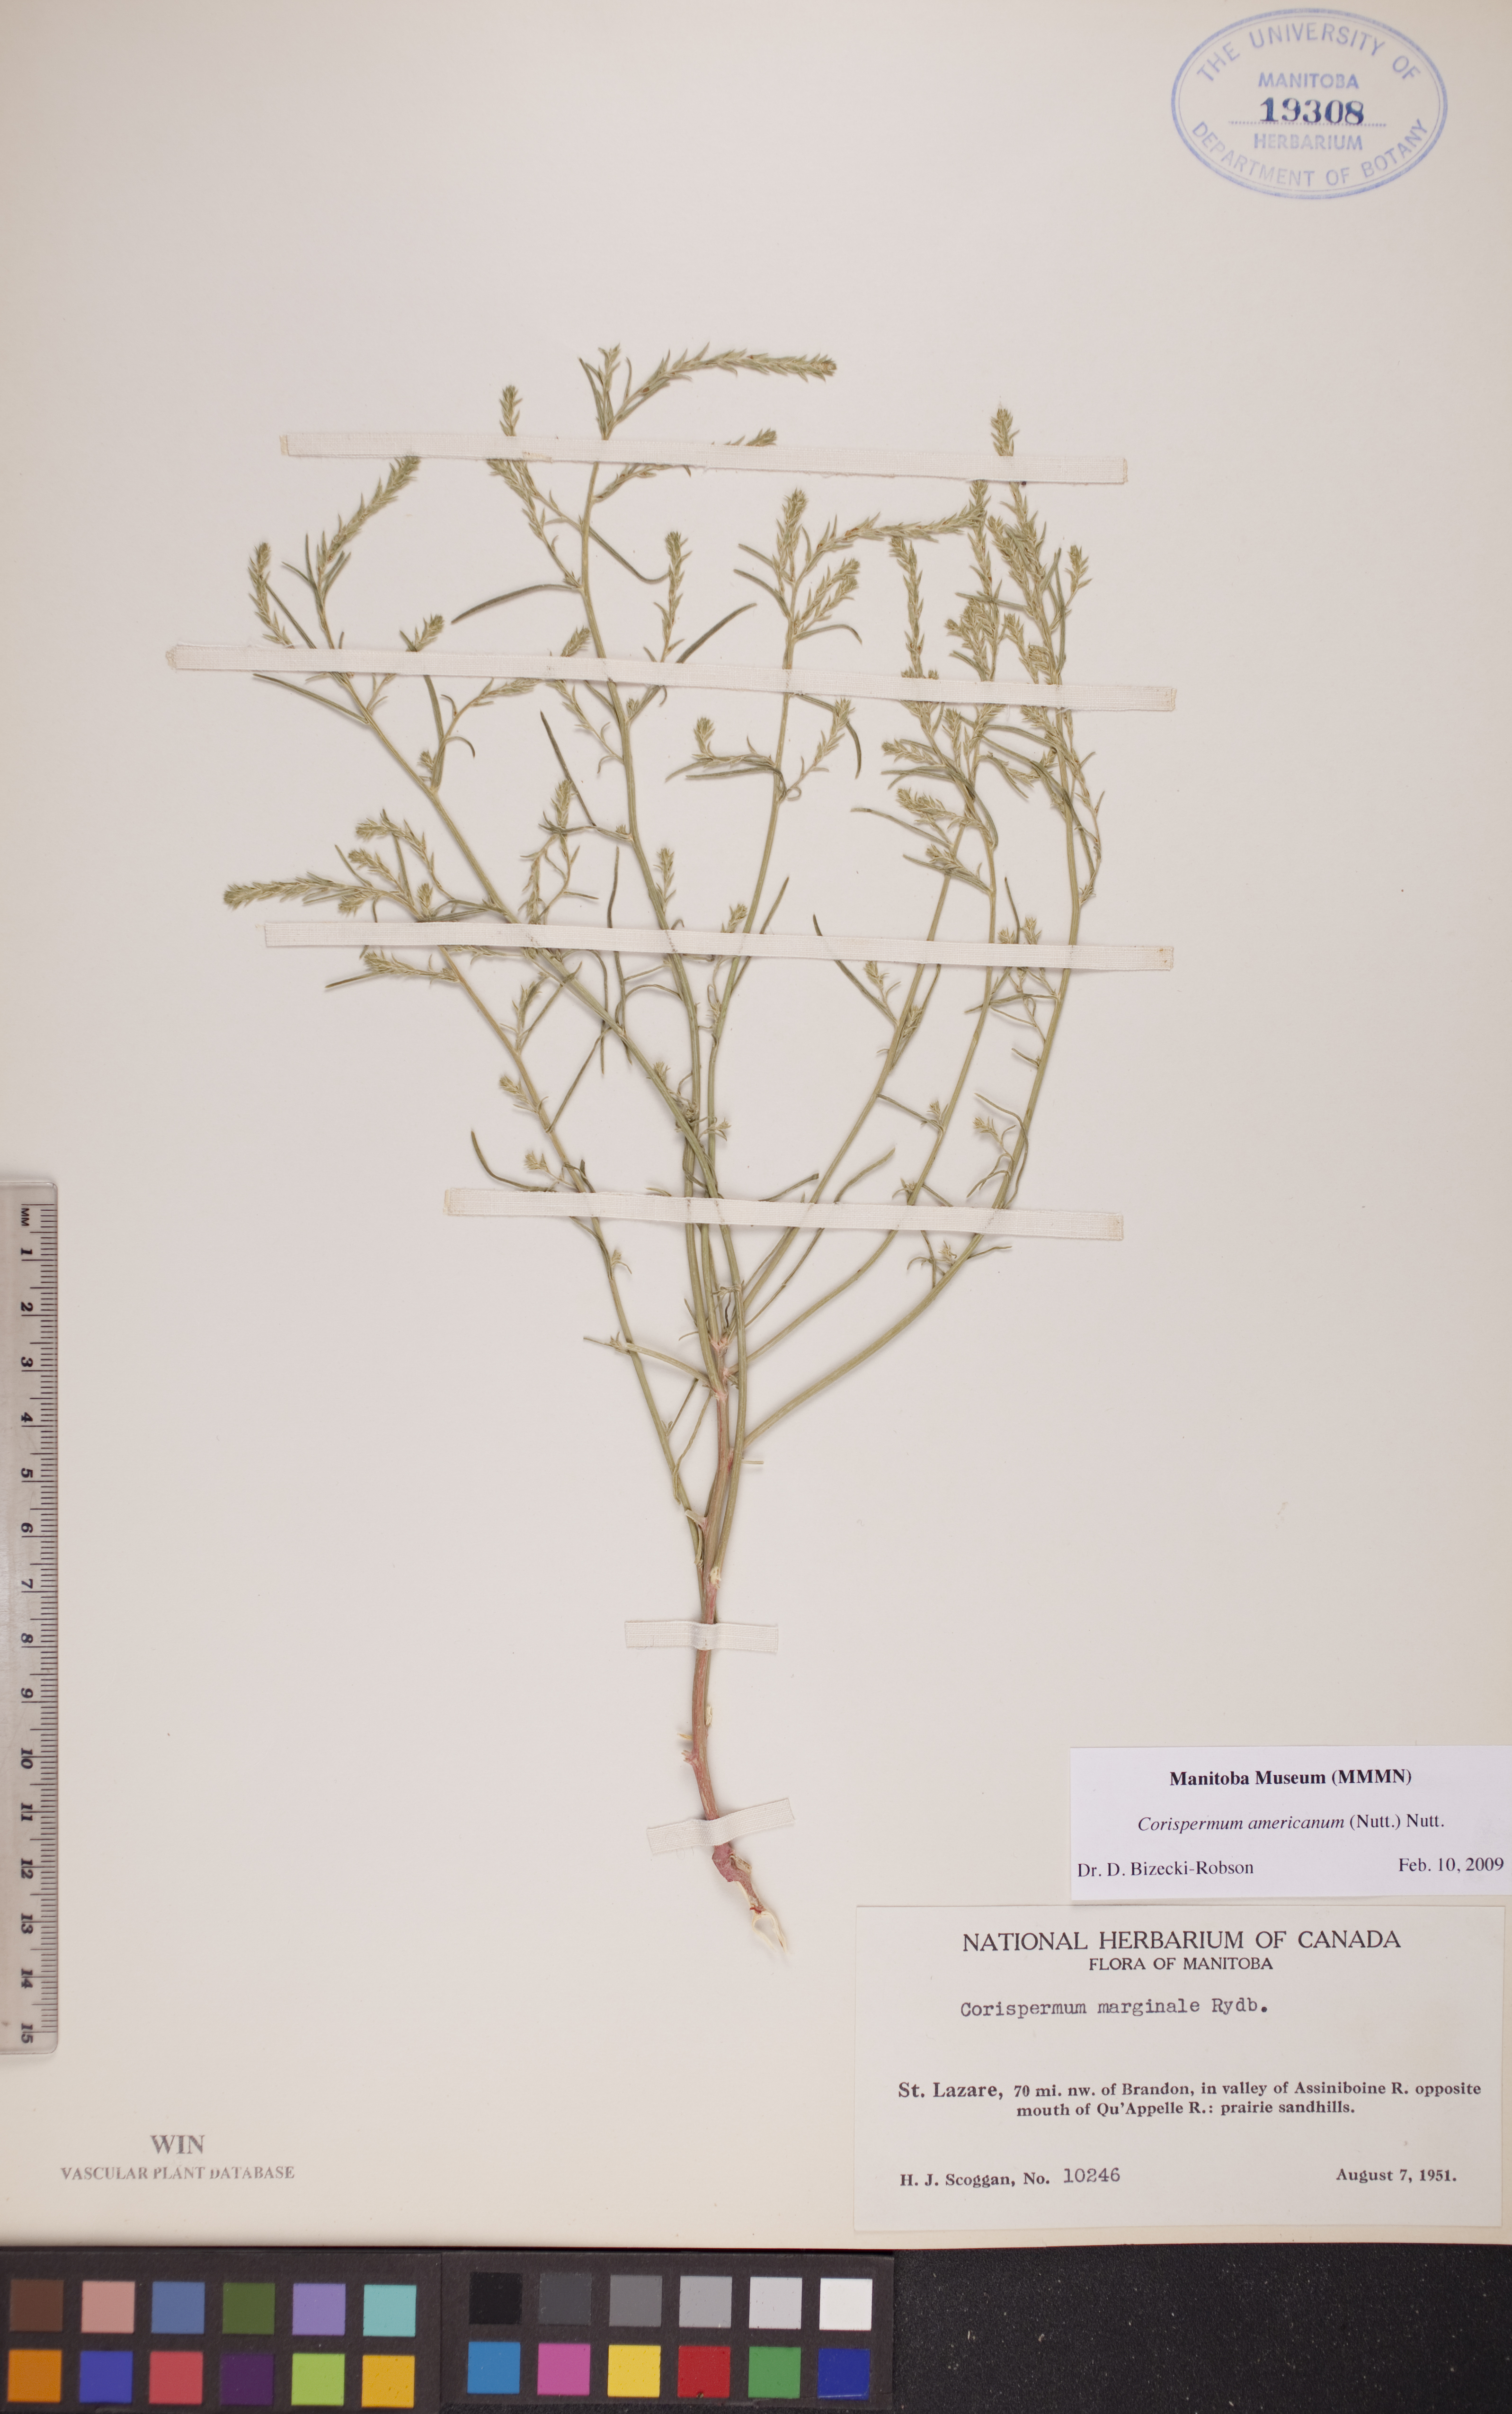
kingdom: Plantae
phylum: Tracheophyta
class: Magnoliopsida
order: Caryophyllales
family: Amaranthaceae
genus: Corispermum
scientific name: Corispermum americanum
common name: American bugseed
